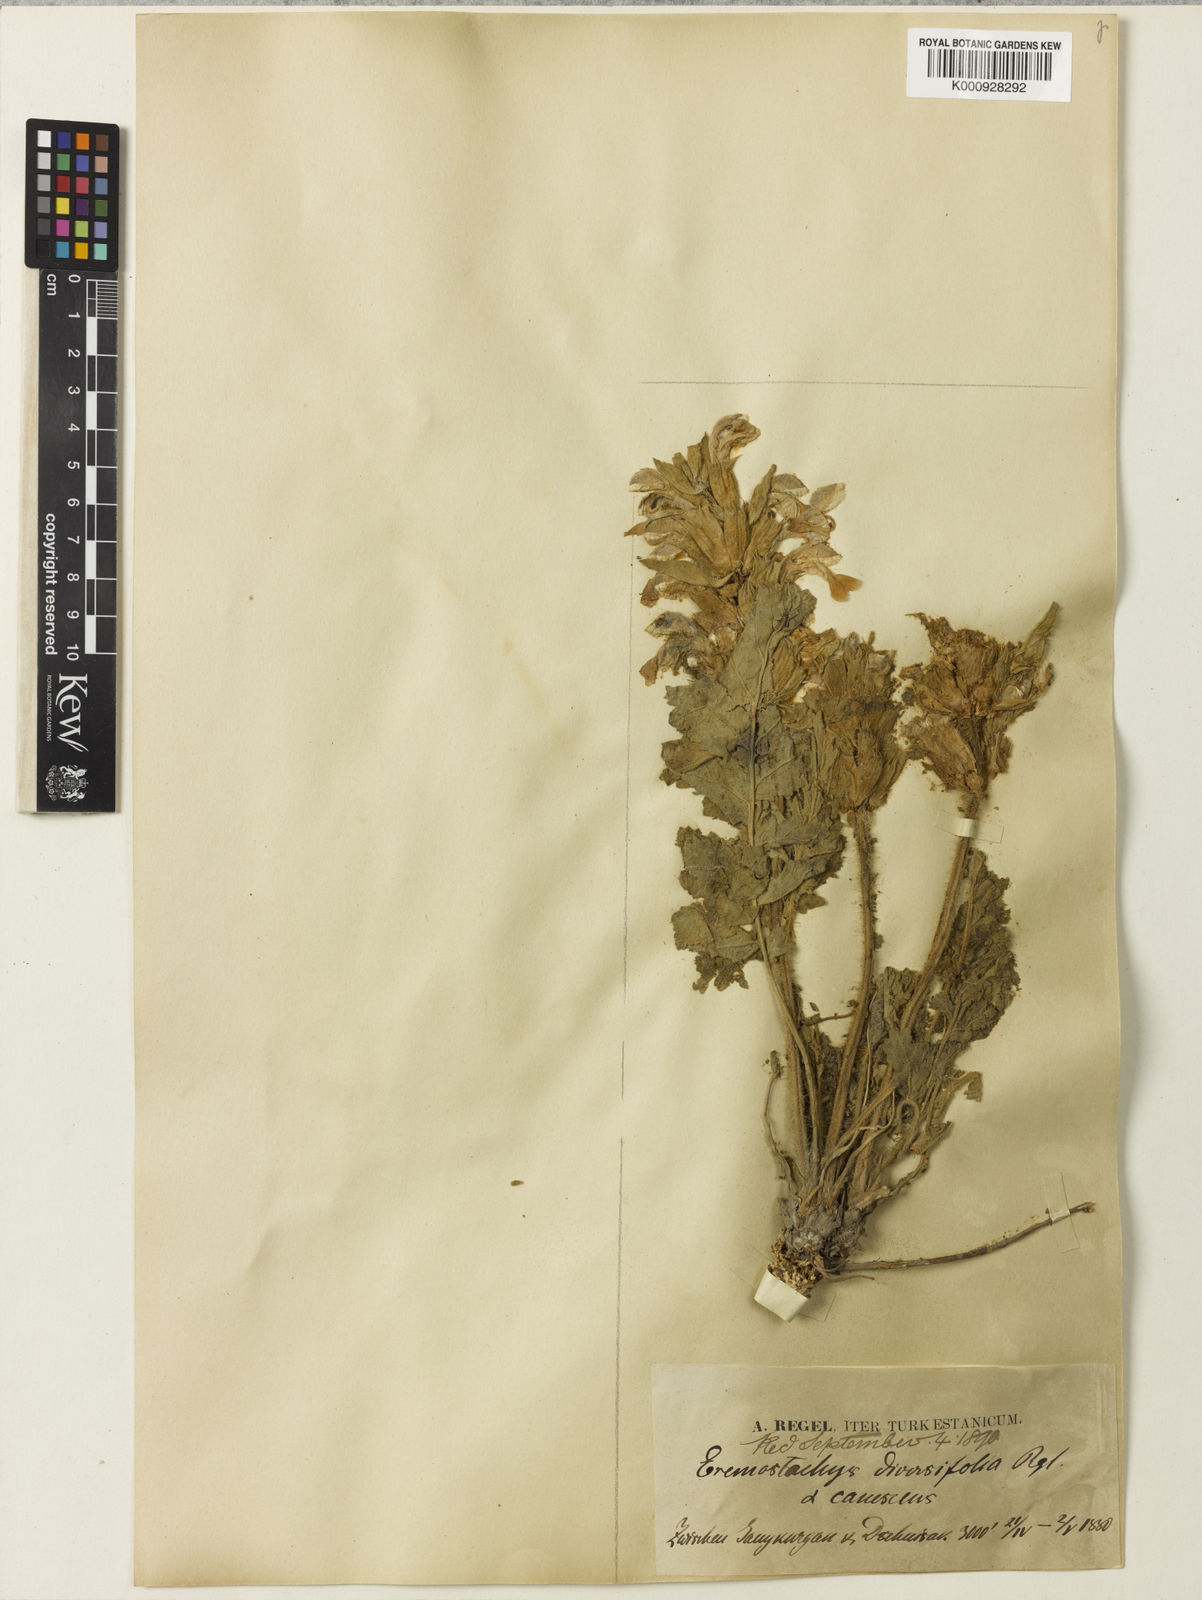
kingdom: Plantae
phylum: Tracheophyta
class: Magnoliopsida
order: Lamiales
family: Lamiaceae
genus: Phlomoides
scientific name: Phlomoides labiosa
